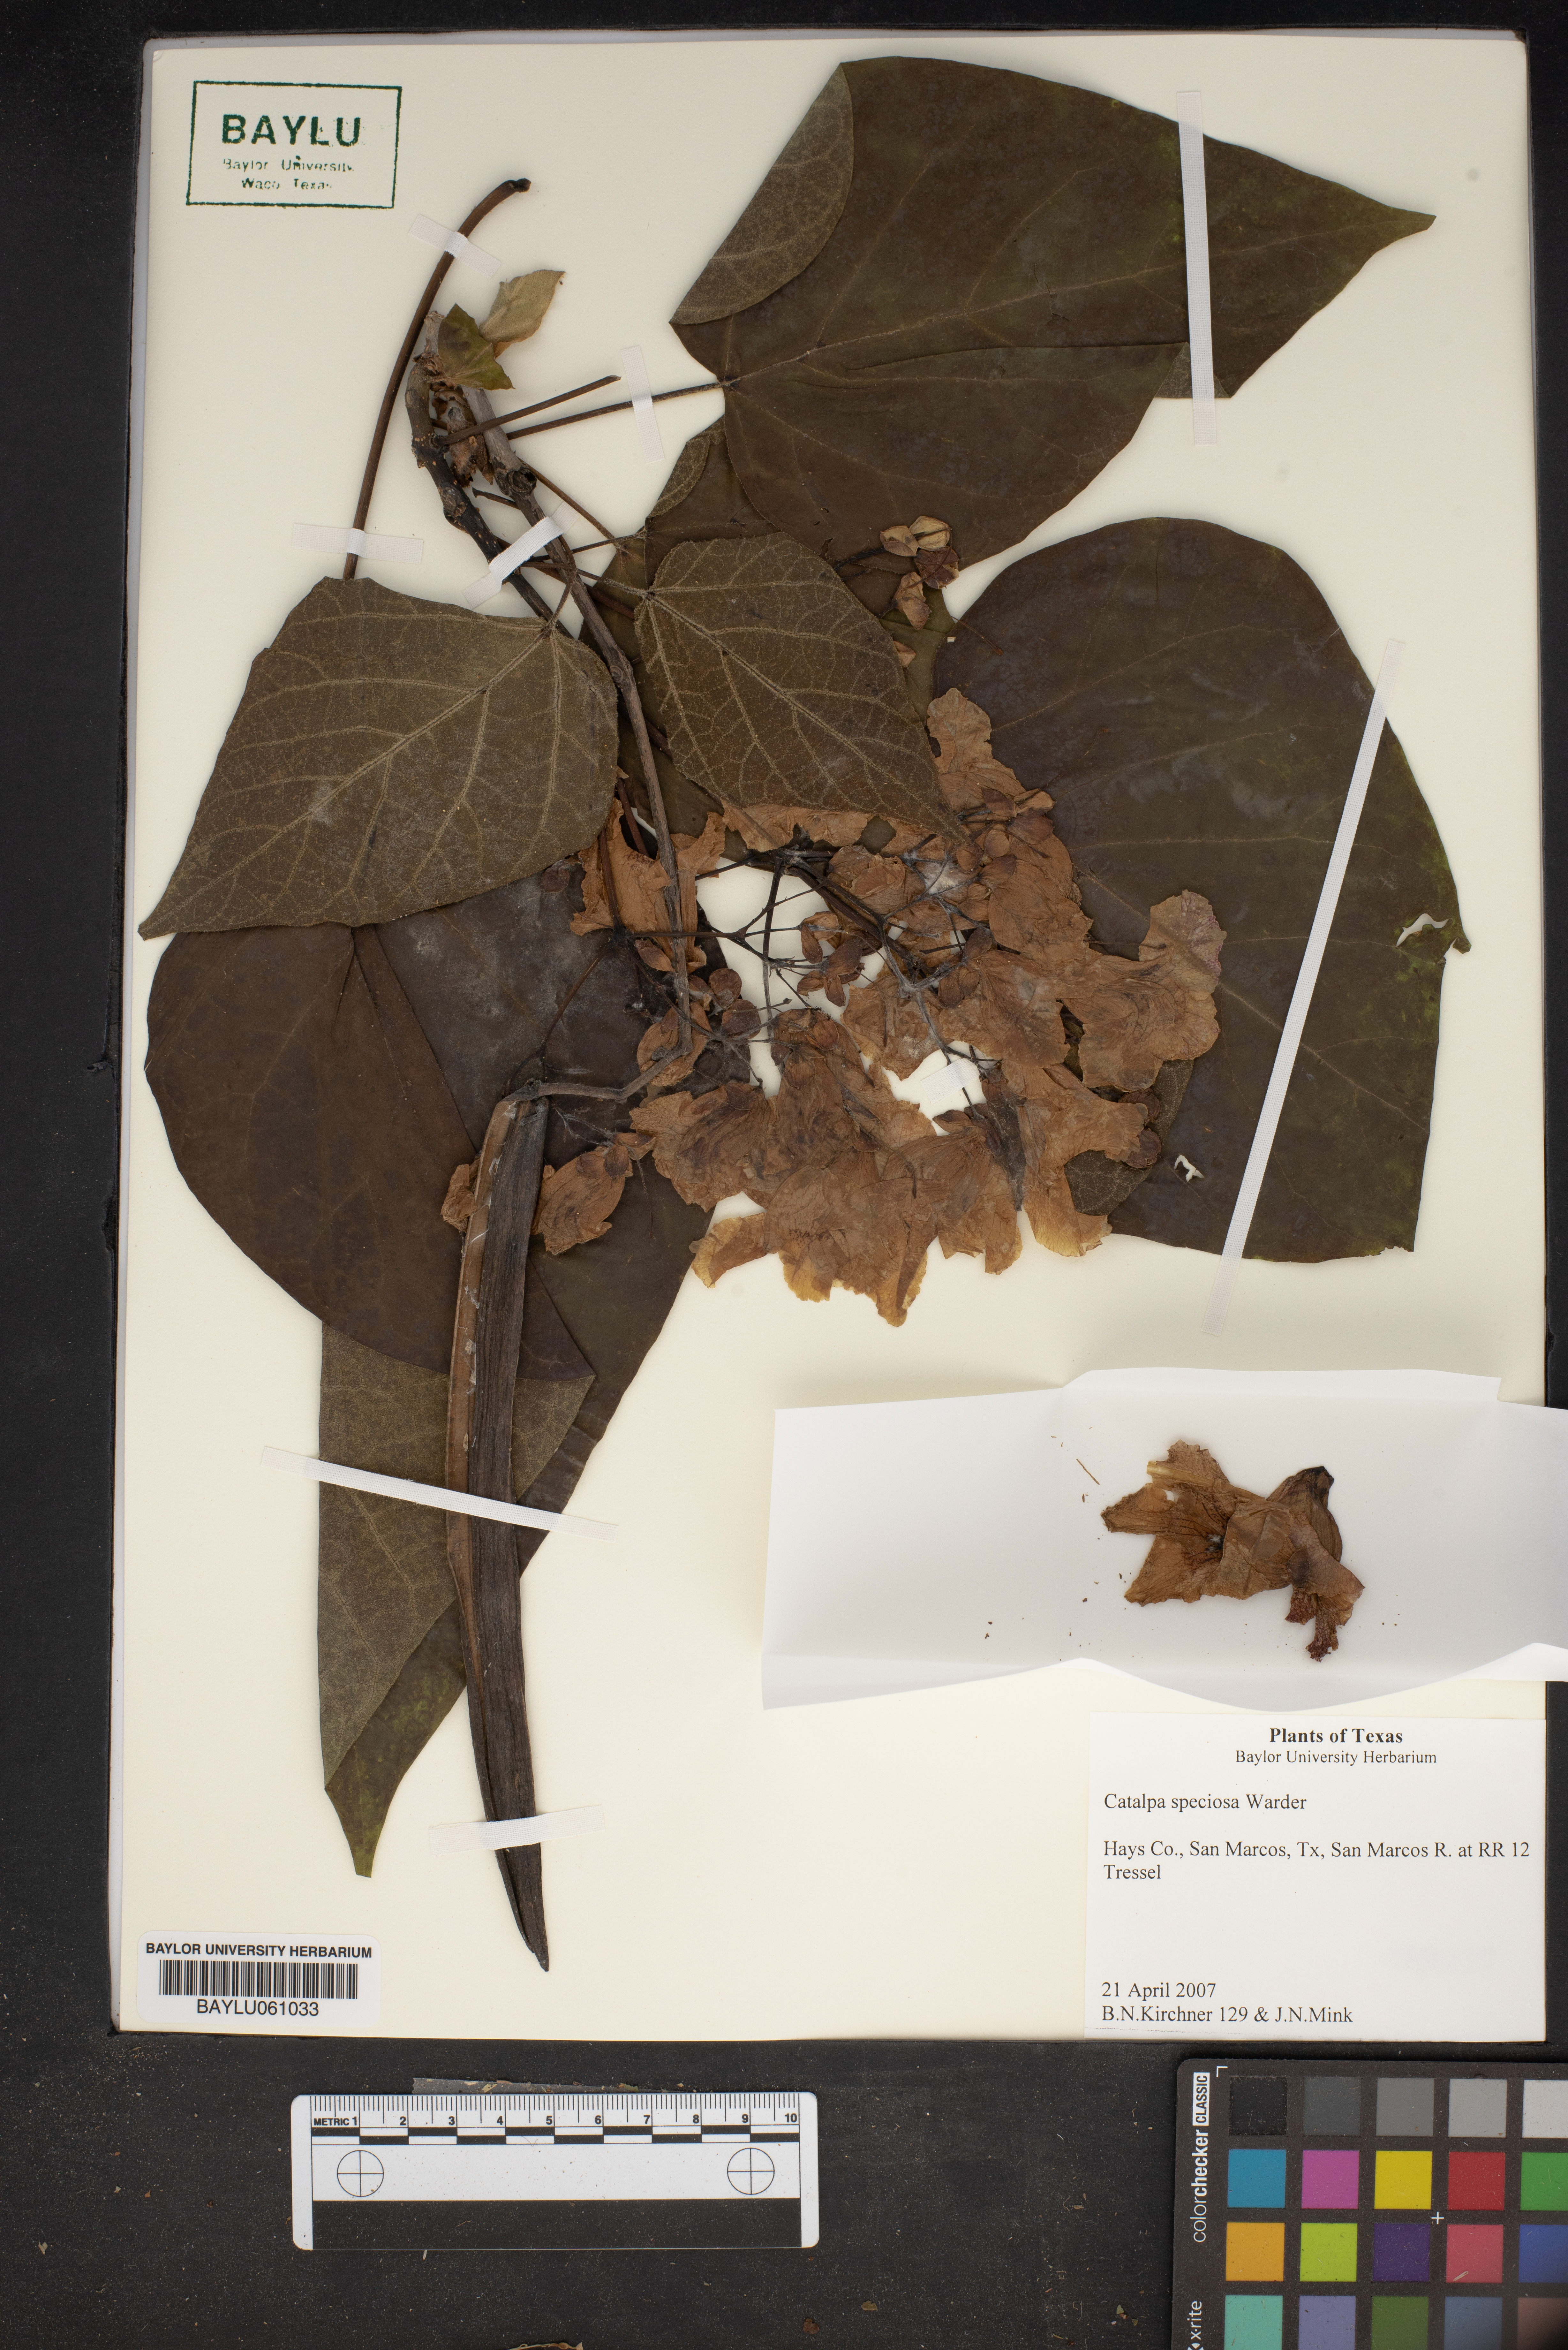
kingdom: Plantae
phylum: Tracheophyta
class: Magnoliopsida
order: Lamiales
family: Bignoniaceae
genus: Catalpa
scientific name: Catalpa speciosa
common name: Northern catalpa
